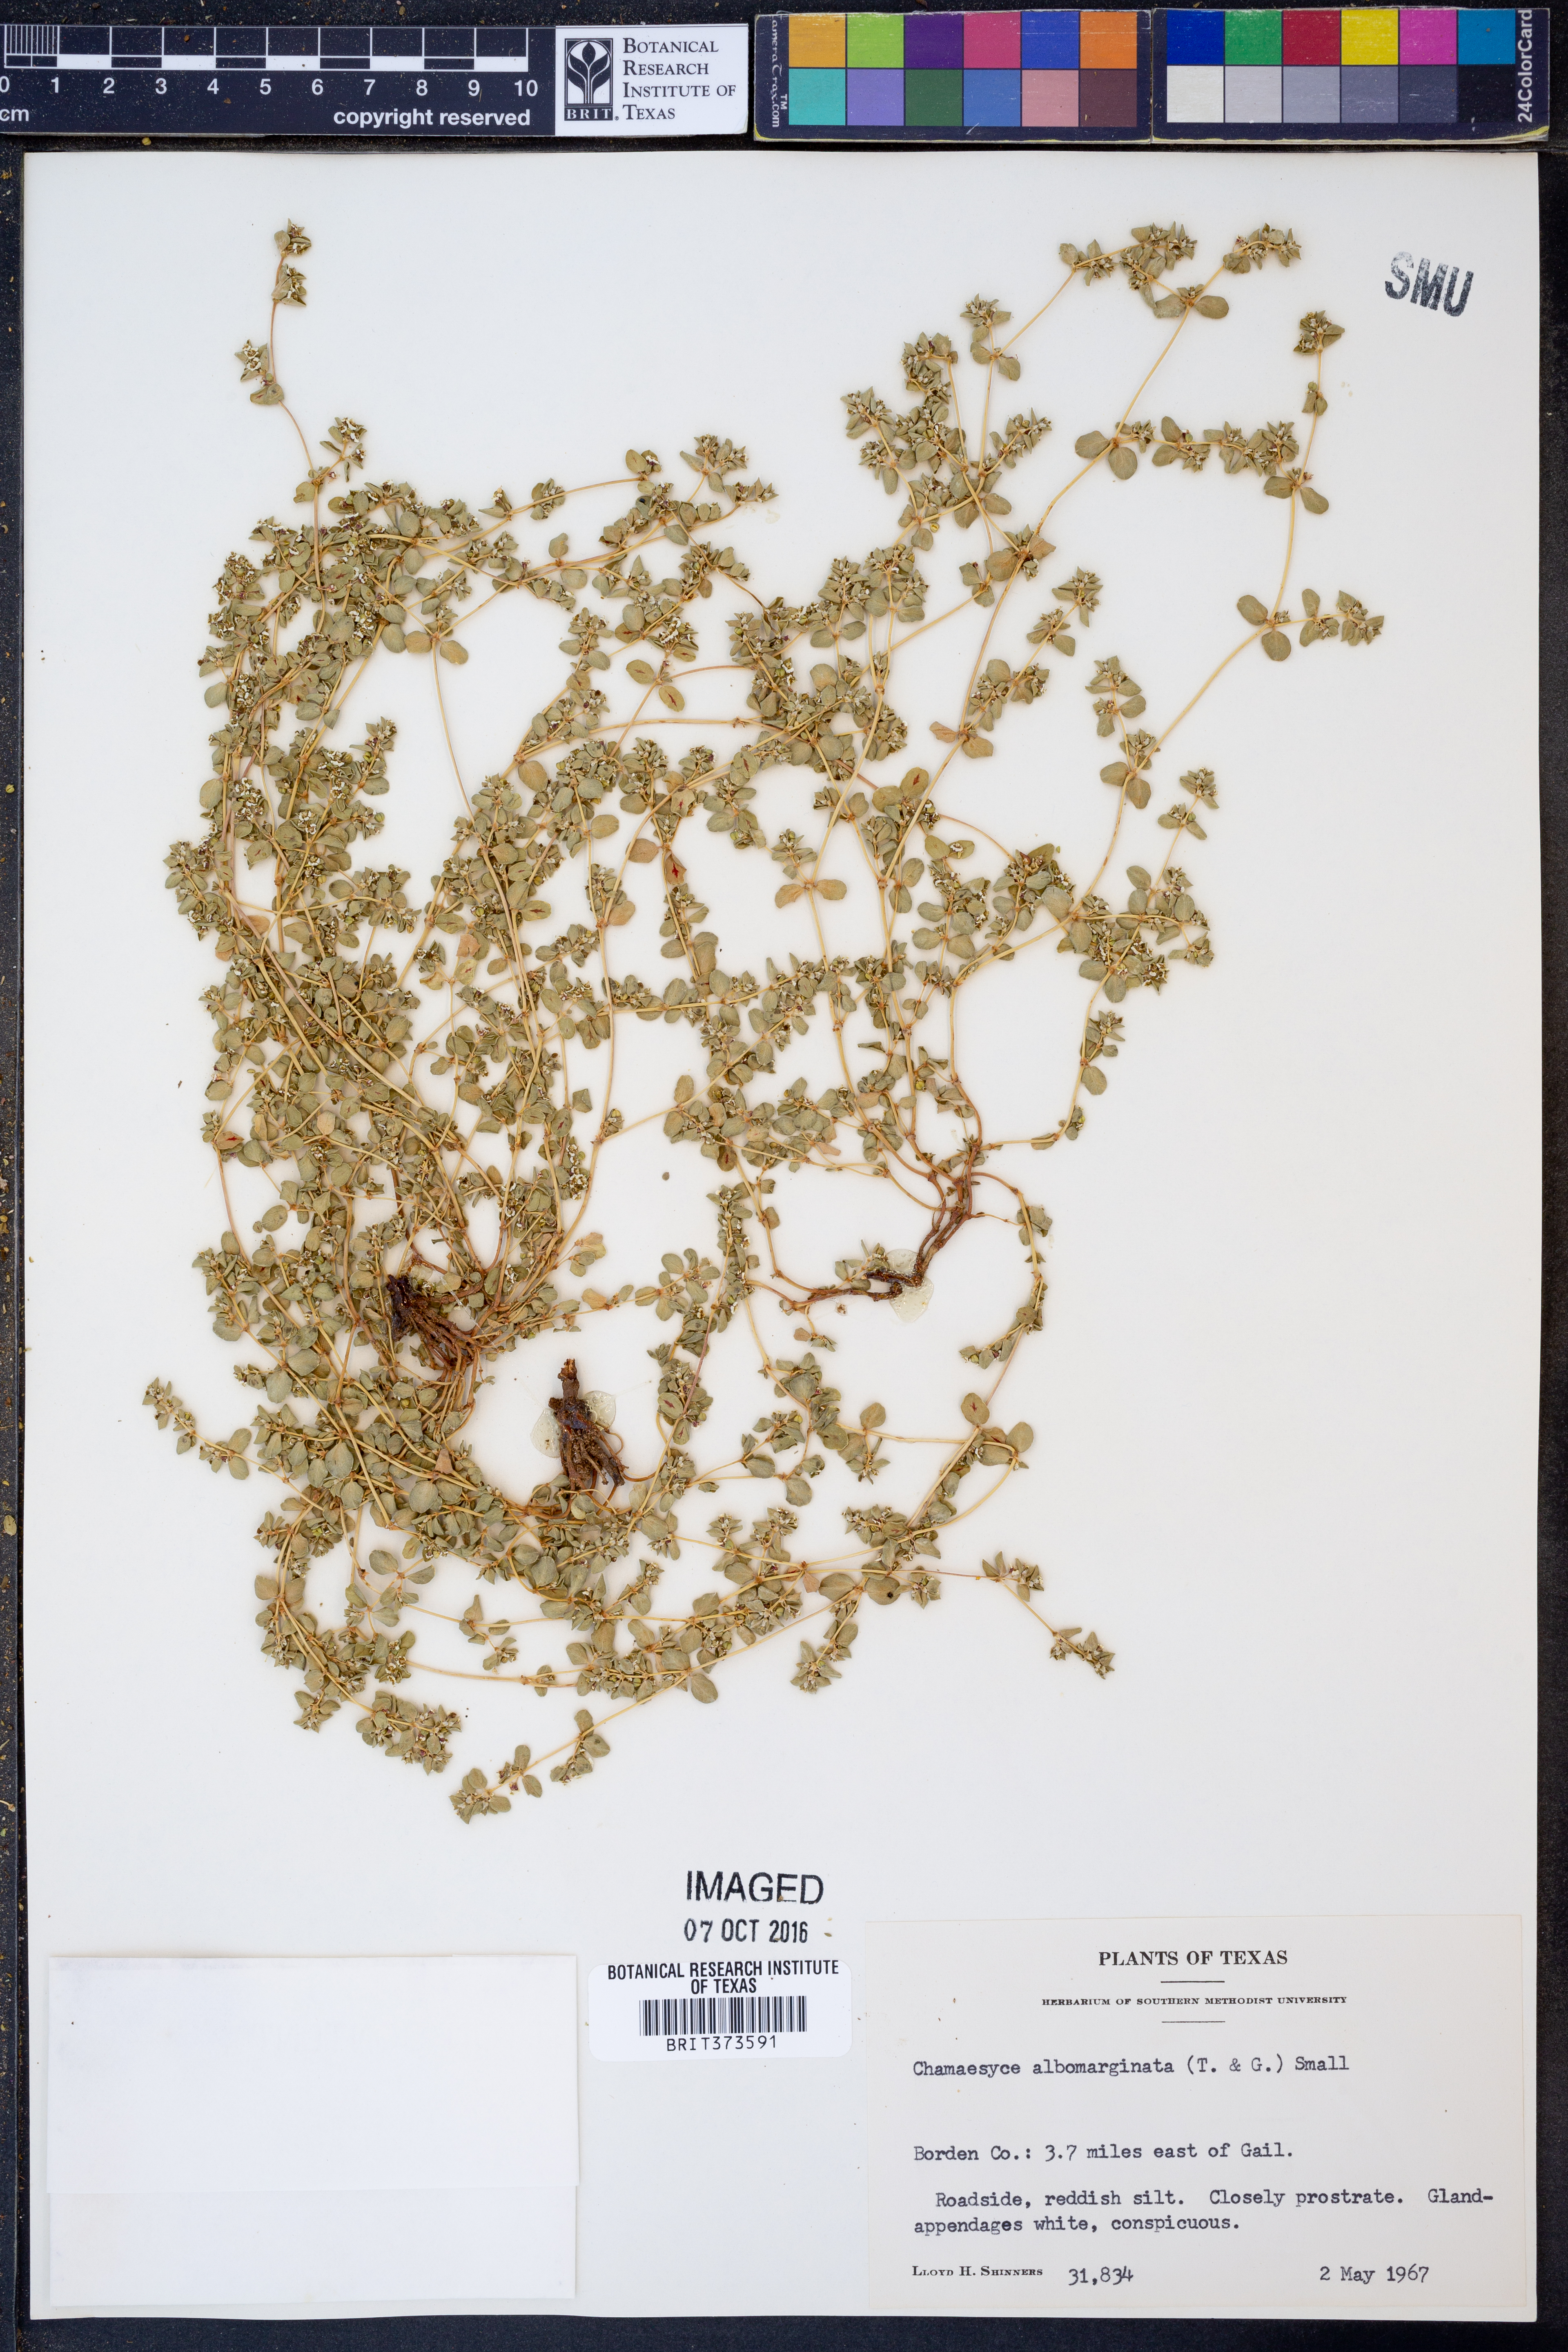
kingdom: Plantae
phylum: Tracheophyta
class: Magnoliopsida
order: Malpighiales
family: Euphorbiaceae
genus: Euphorbia
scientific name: Euphorbia albomarginata
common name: Whitemargin sandmat
